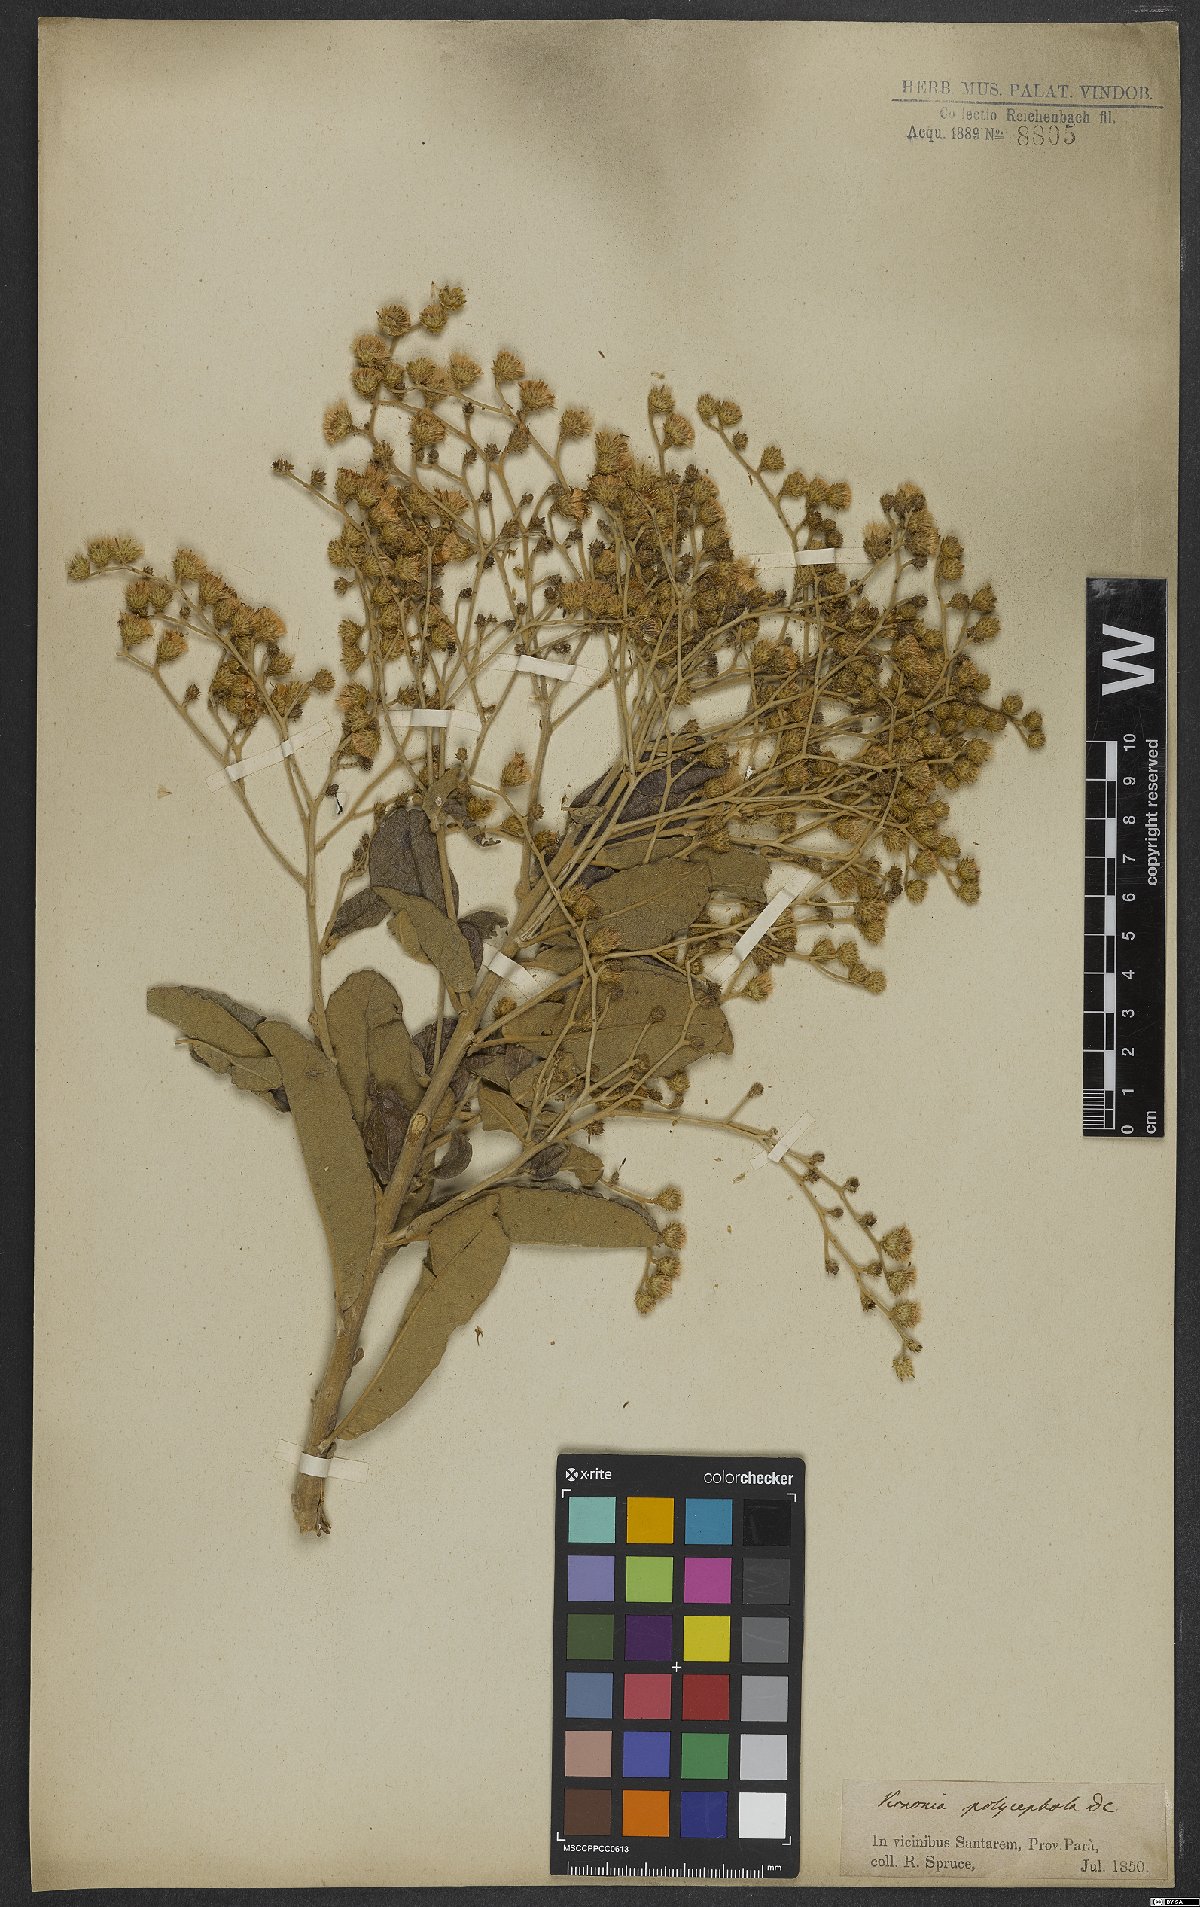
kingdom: Plantae
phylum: Tracheophyta
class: Magnoliopsida
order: Asterales
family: Asteraceae
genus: Vernonanthura
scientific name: Vernonanthura ferruginea
